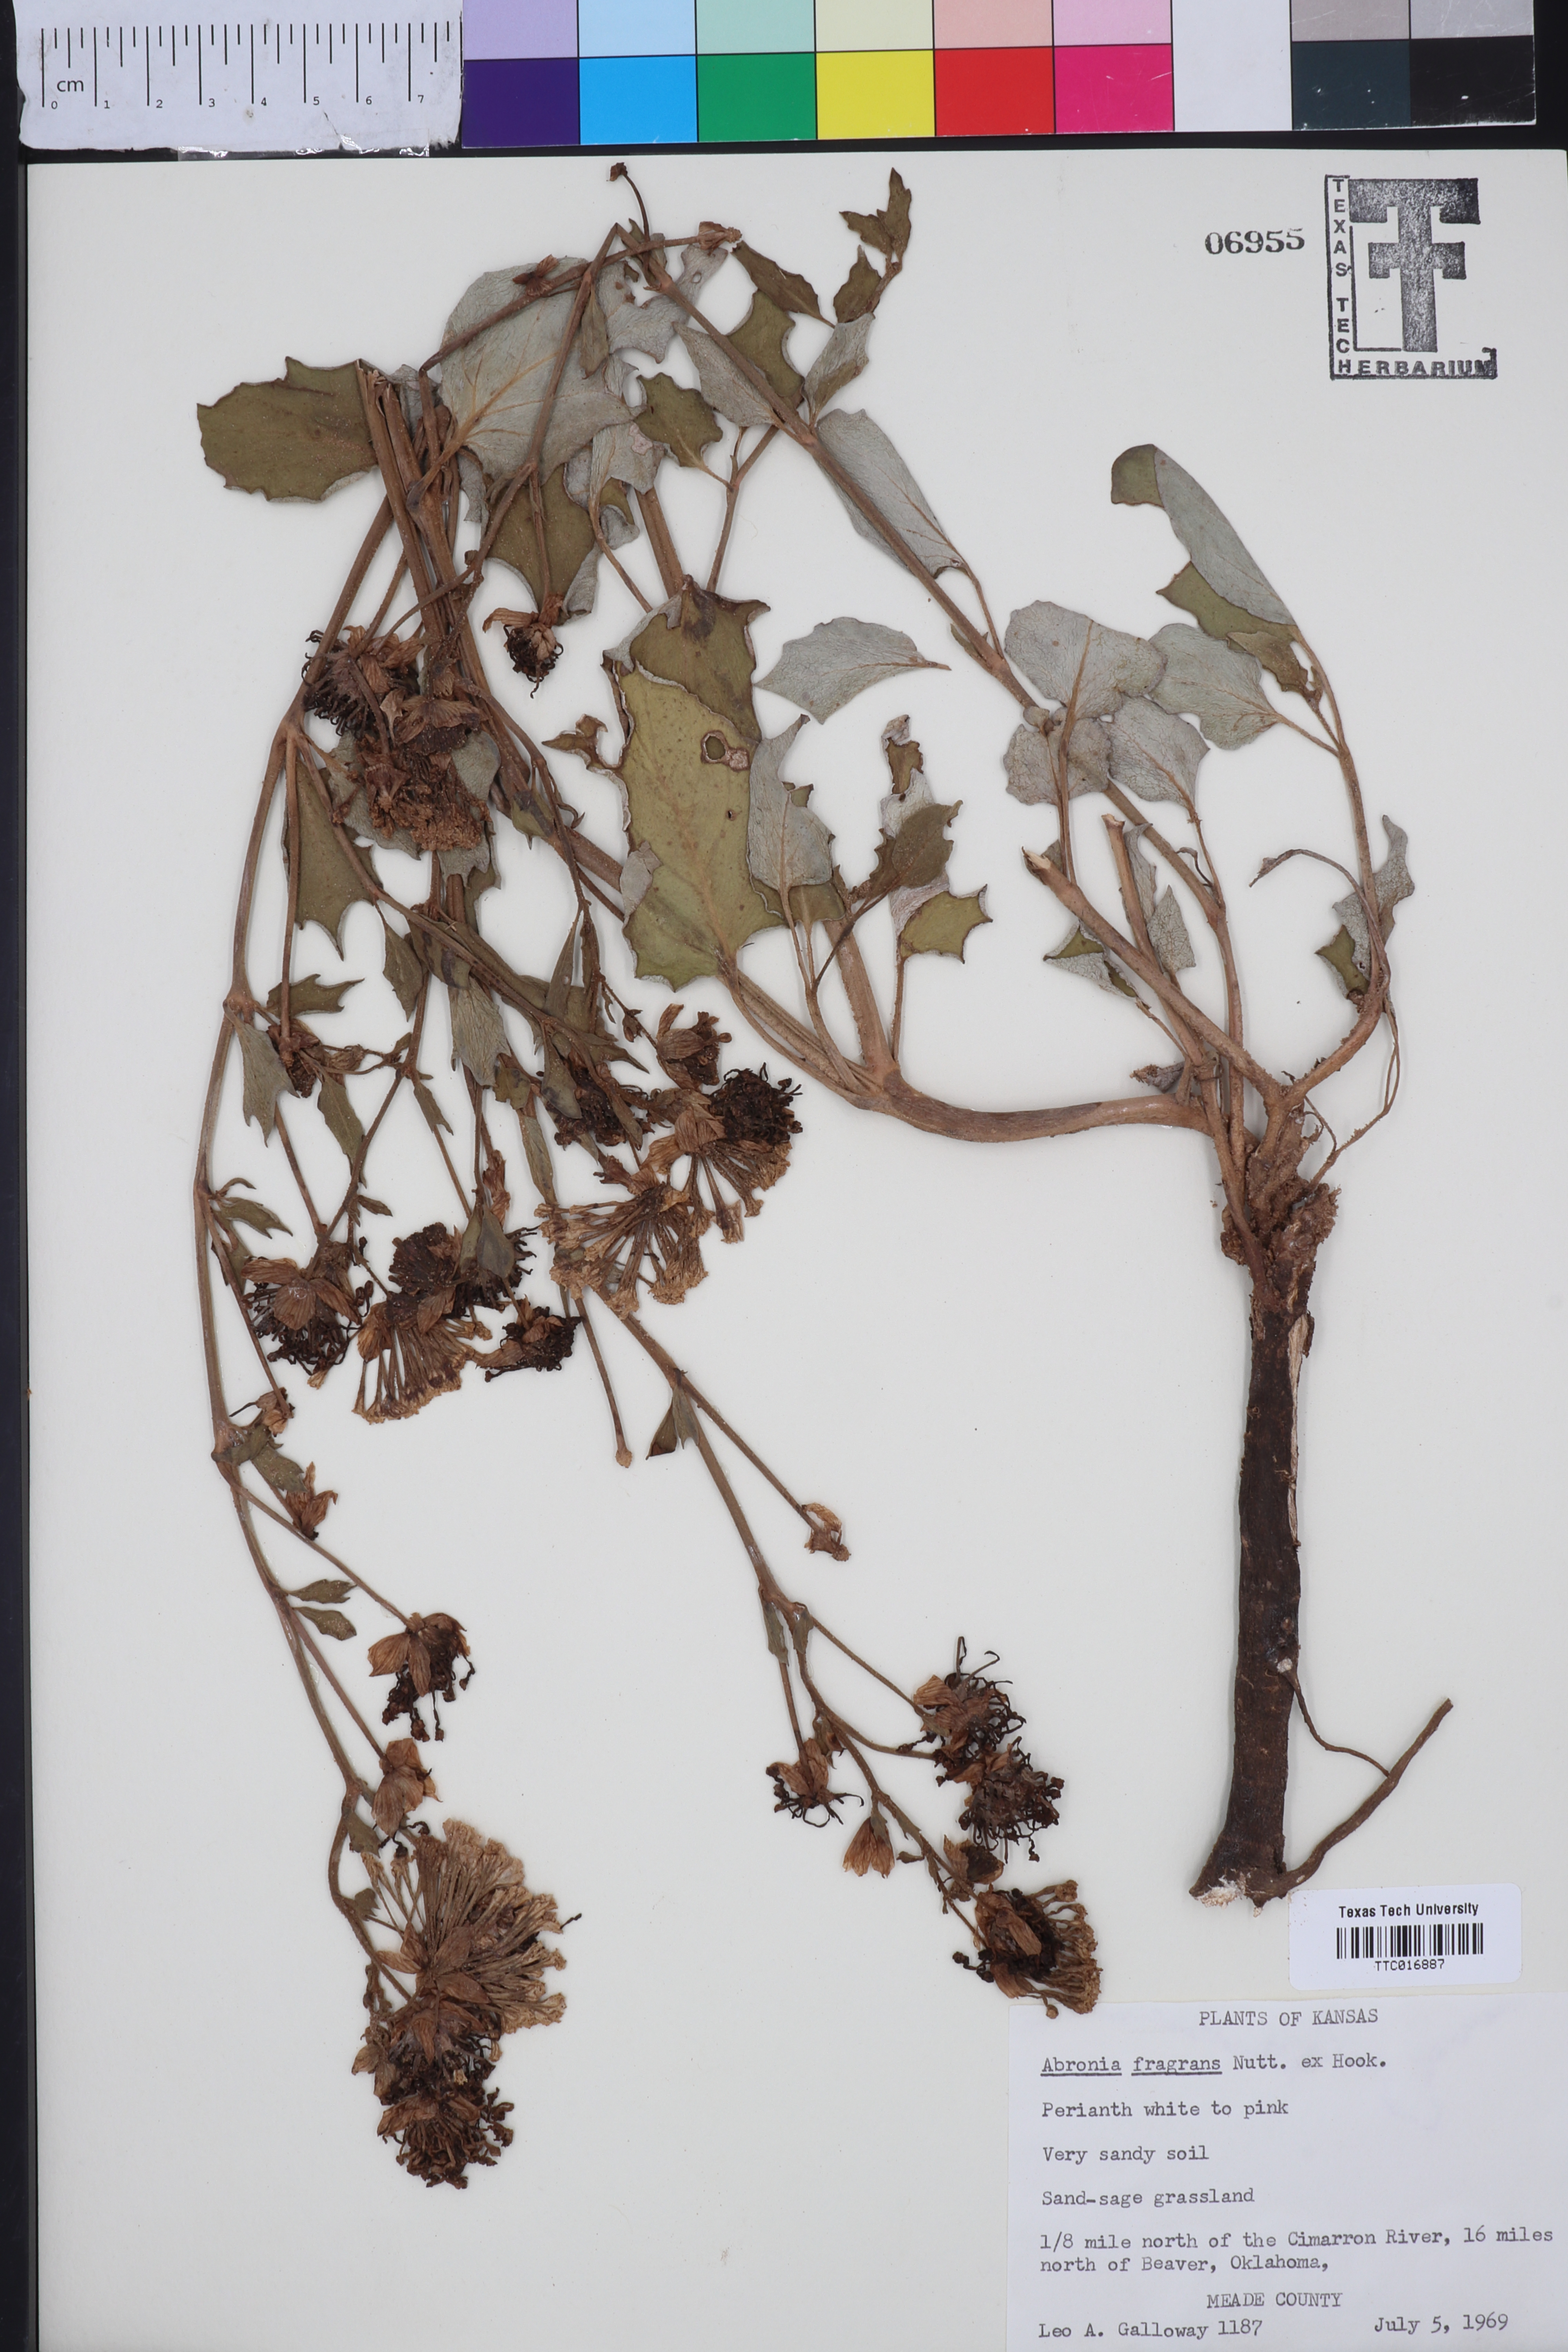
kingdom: Plantae
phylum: Tracheophyta
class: Magnoliopsida
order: Caryophyllales
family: Nyctaginaceae
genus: Abronia
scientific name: Abronia fragrans
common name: Fragrant sand-verbena
